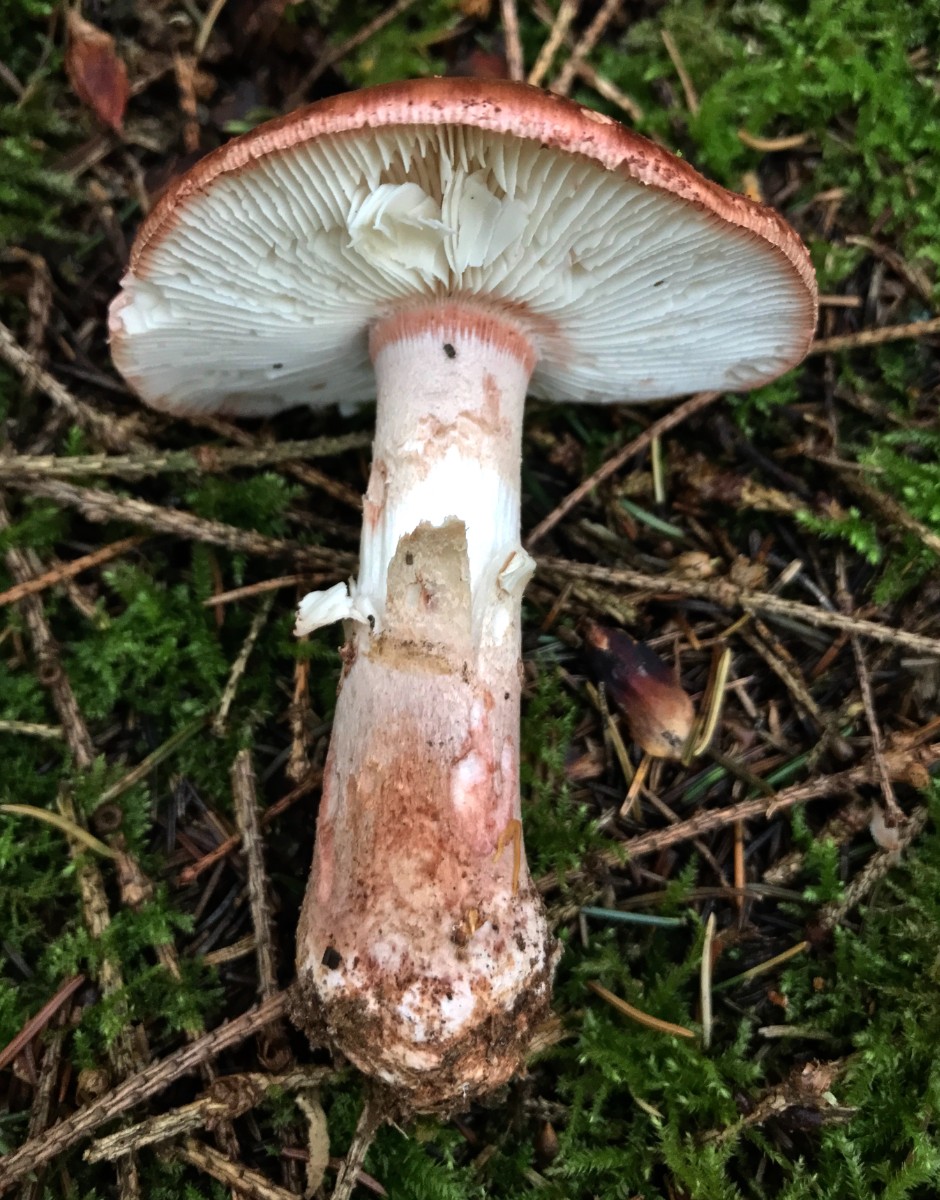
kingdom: Fungi
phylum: Basidiomycota
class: Agaricomycetes
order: Agaricales
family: Amanitaceae
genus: Amanita
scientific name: Amanita rubescens
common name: rødmende fluesvamp
